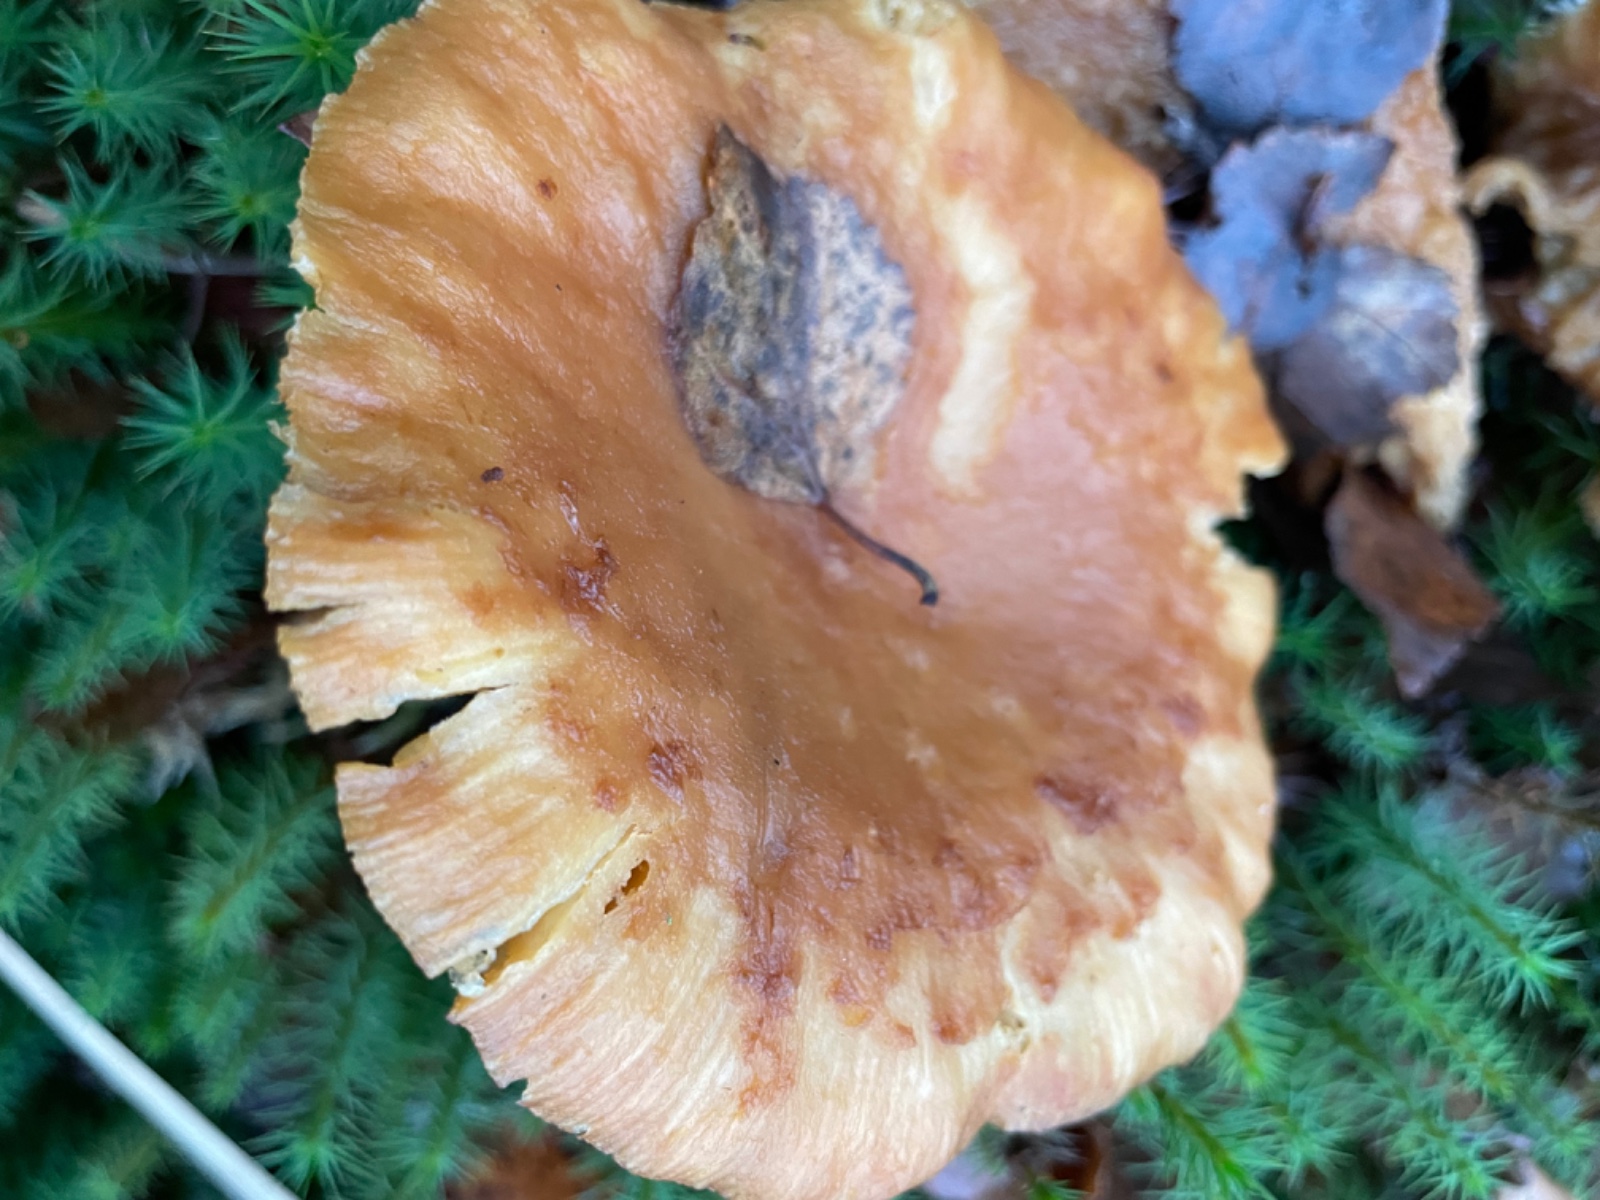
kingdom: Fungi
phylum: Basidiomycota
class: Agaricomycetes
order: Russulales
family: Russulaceae
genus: Lactarius
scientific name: Lactarius
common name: mælkehat
